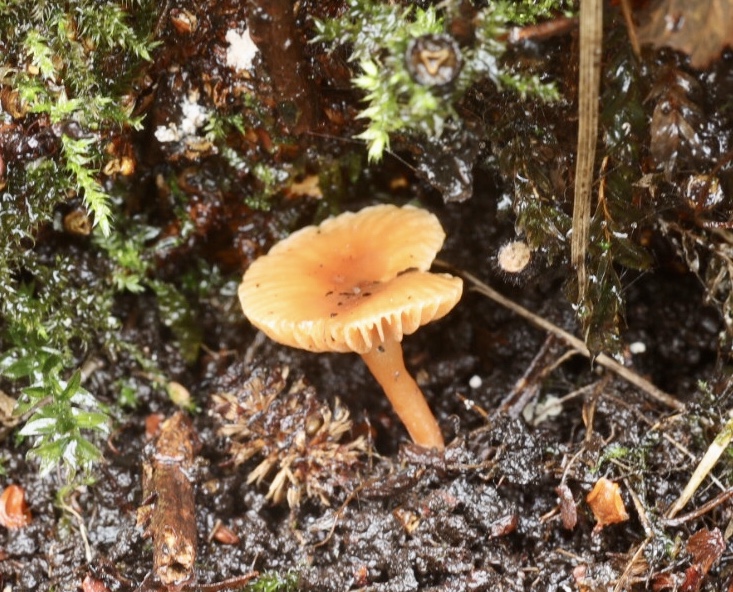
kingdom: Fungi
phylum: Basidiomycota
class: Agaricomycetes
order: Russulales
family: Russulaceae
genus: Lactarius
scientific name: Lactarius obscuratus
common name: elle-mælkehat
